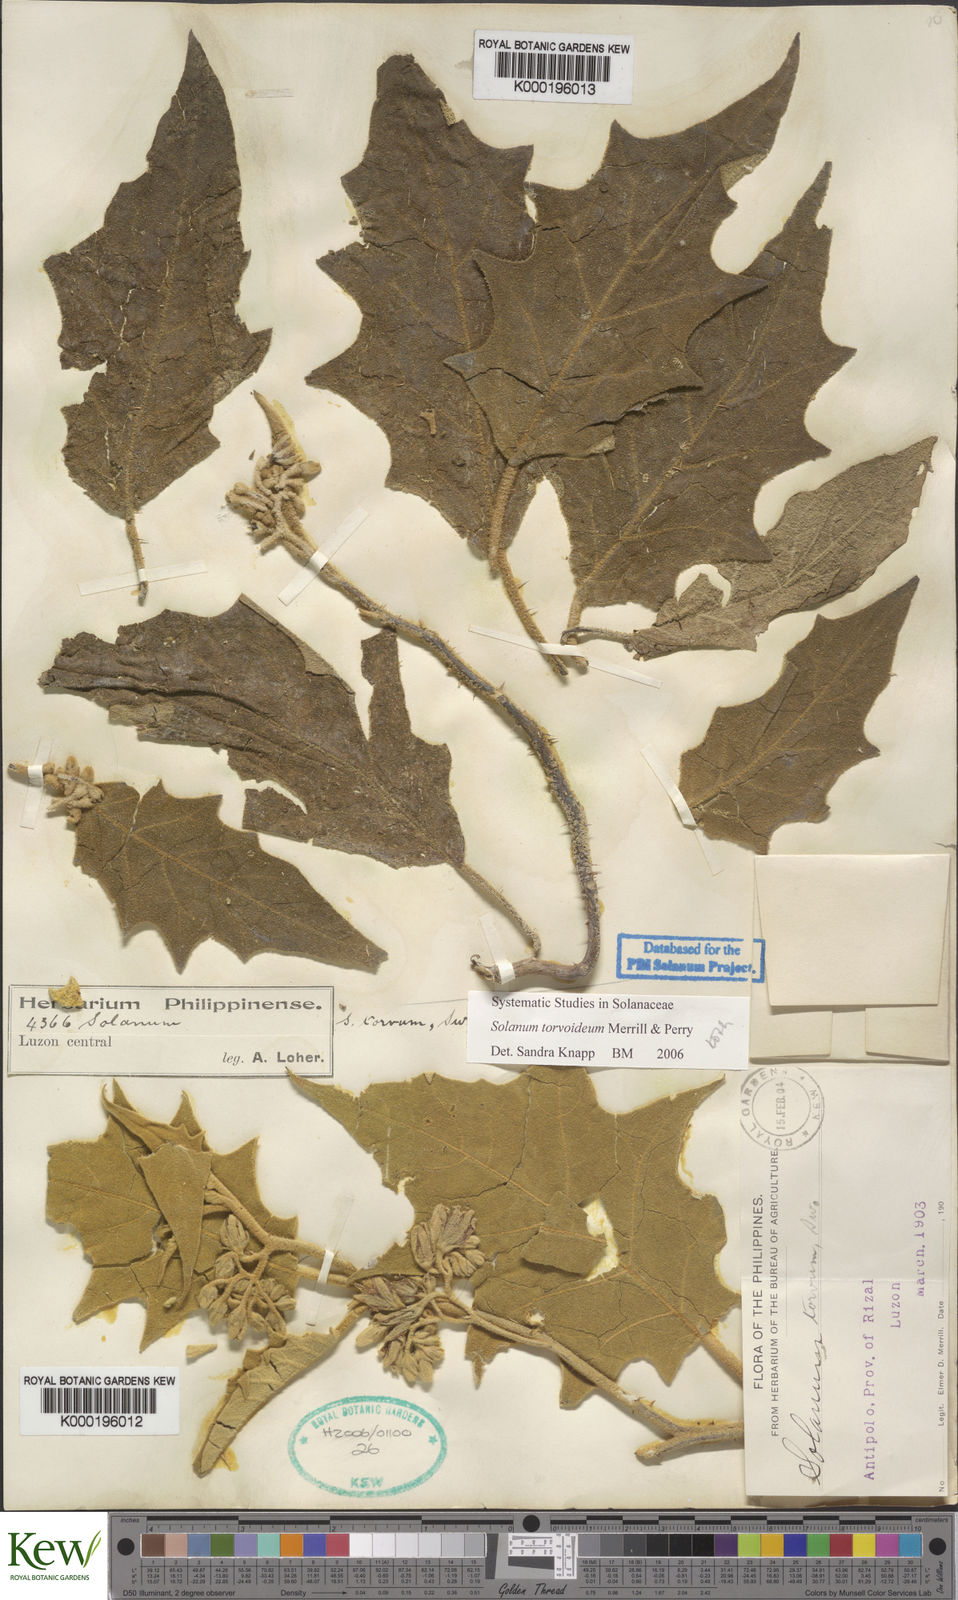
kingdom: Plantae
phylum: Tracheophyta
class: Magnoliopsida
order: Solanales
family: Solanaceae
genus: Solanum
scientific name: Solanum torvoideum
